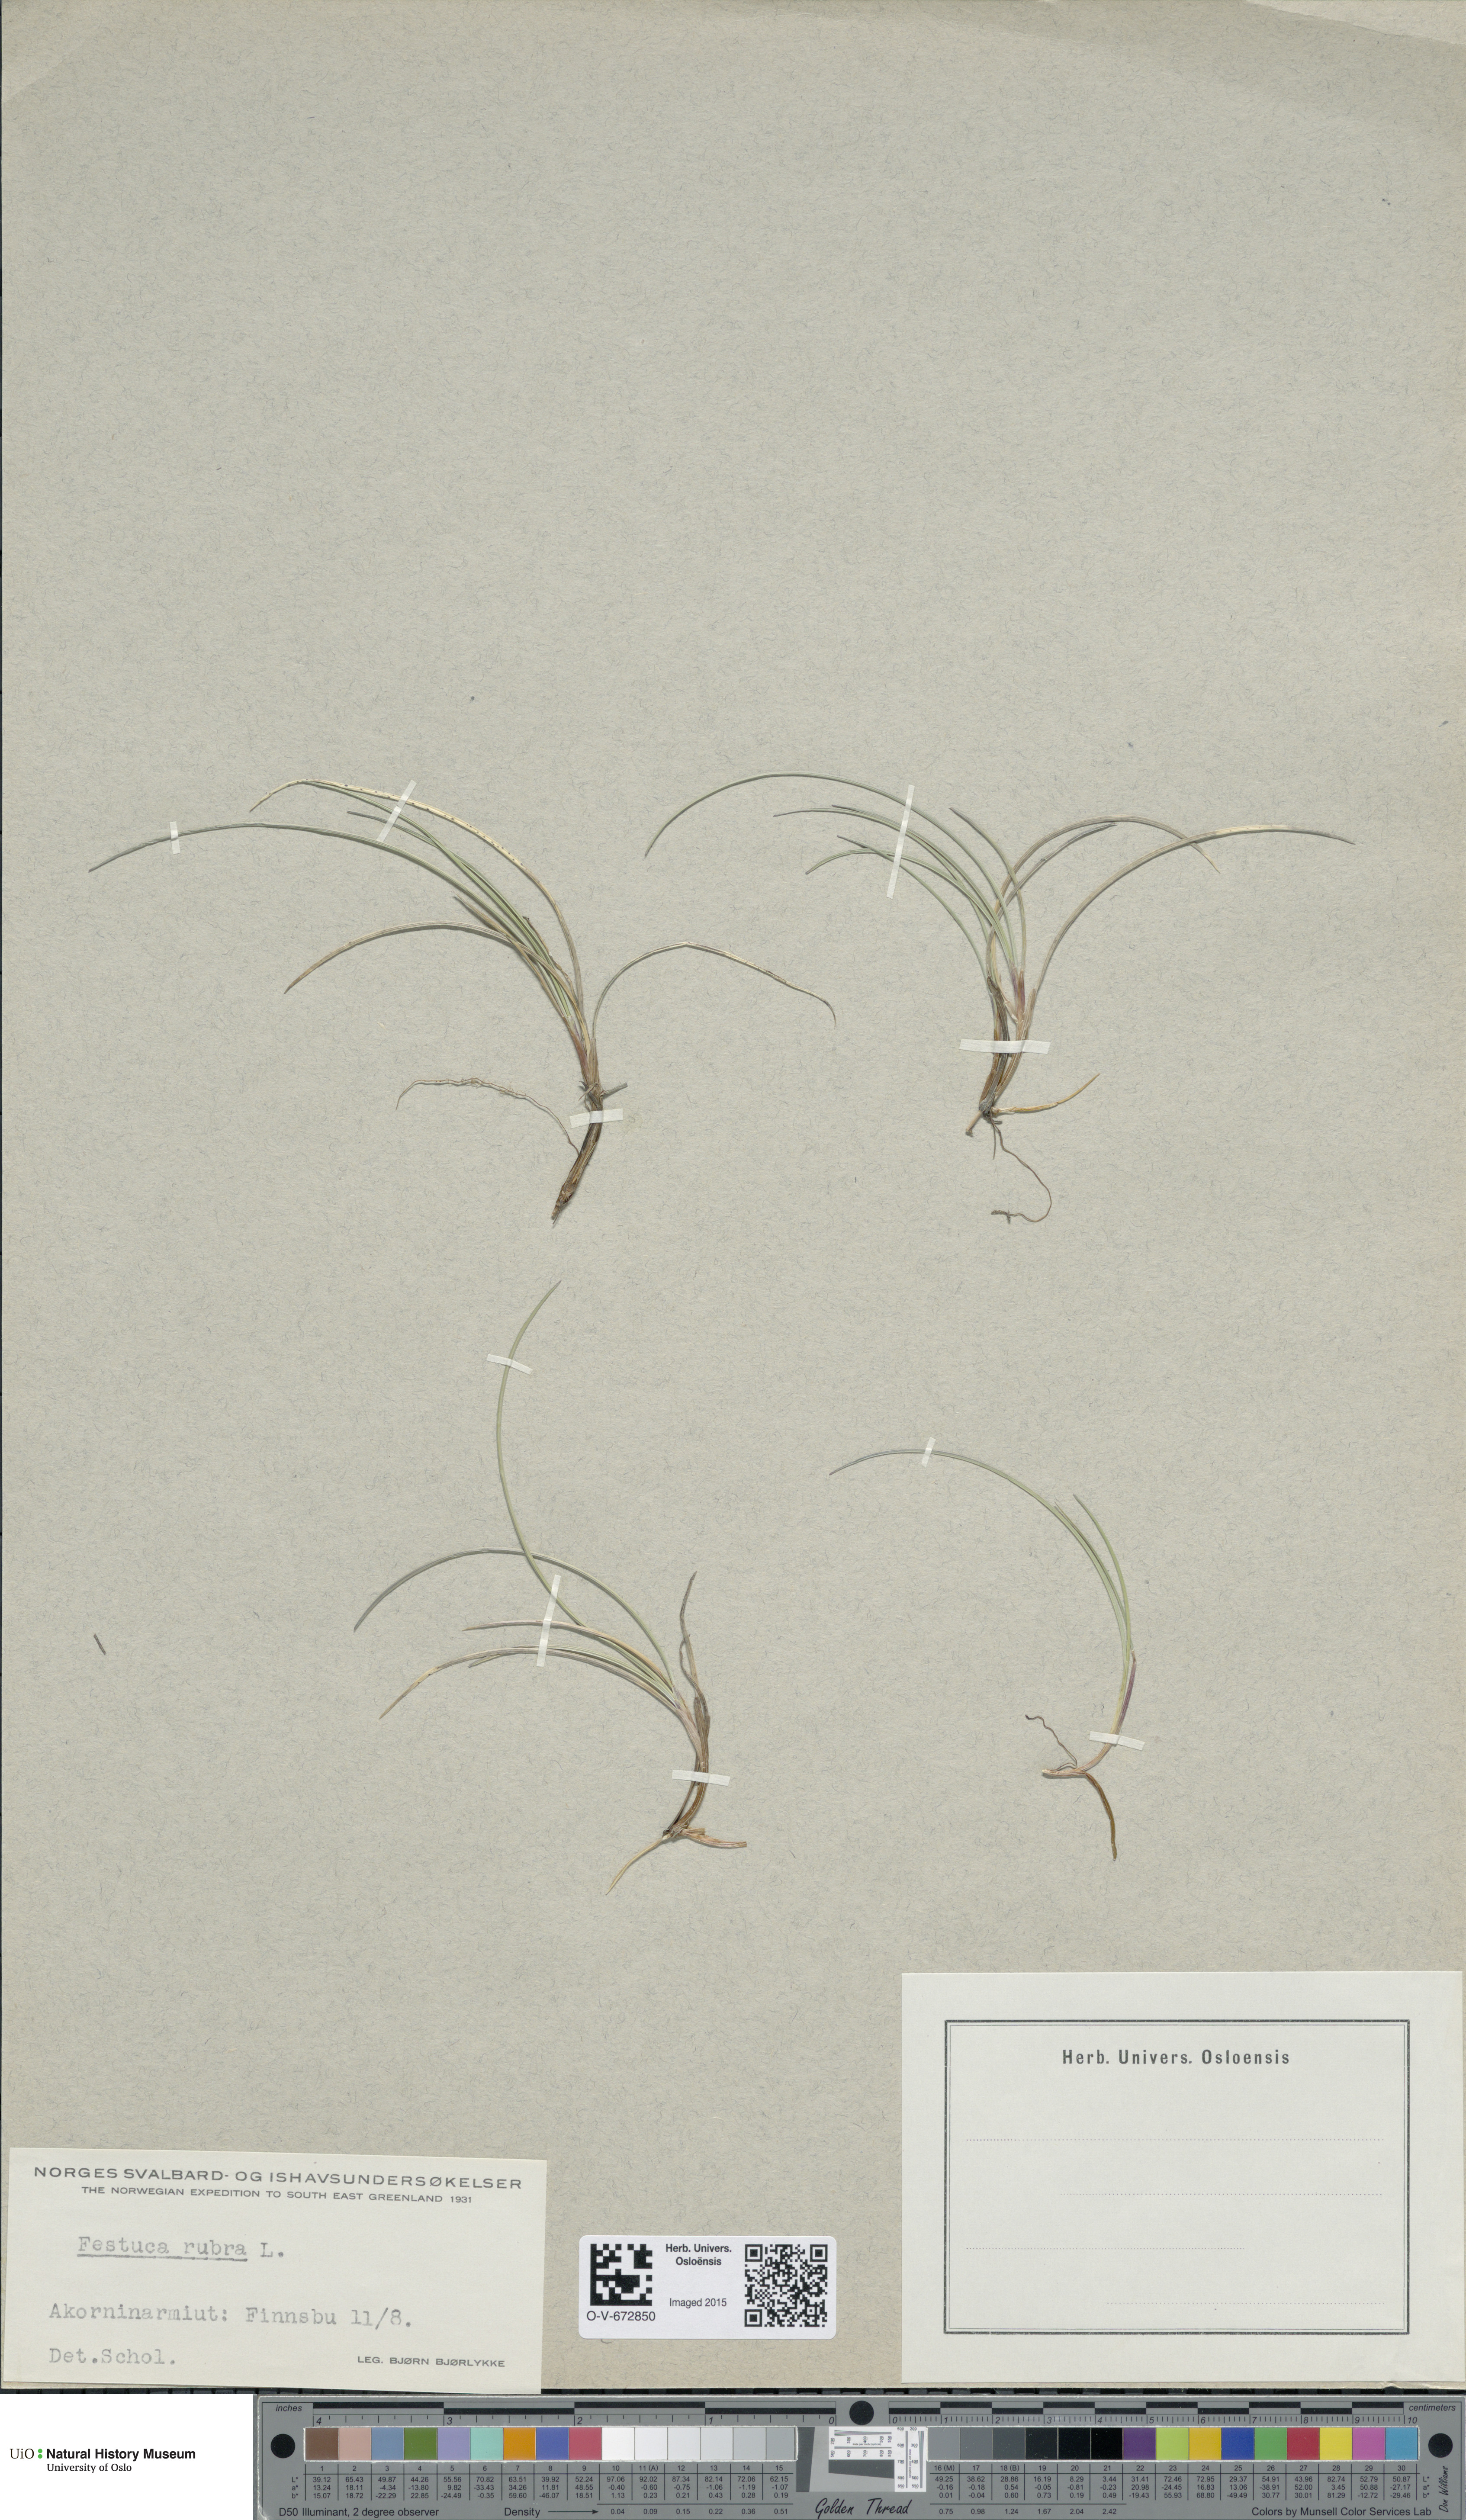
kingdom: Plantae
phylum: Tracheophyta
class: Liliopsida
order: Poales
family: Poaceae
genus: Festuca
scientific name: Festuca rubra
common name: Red fescue
